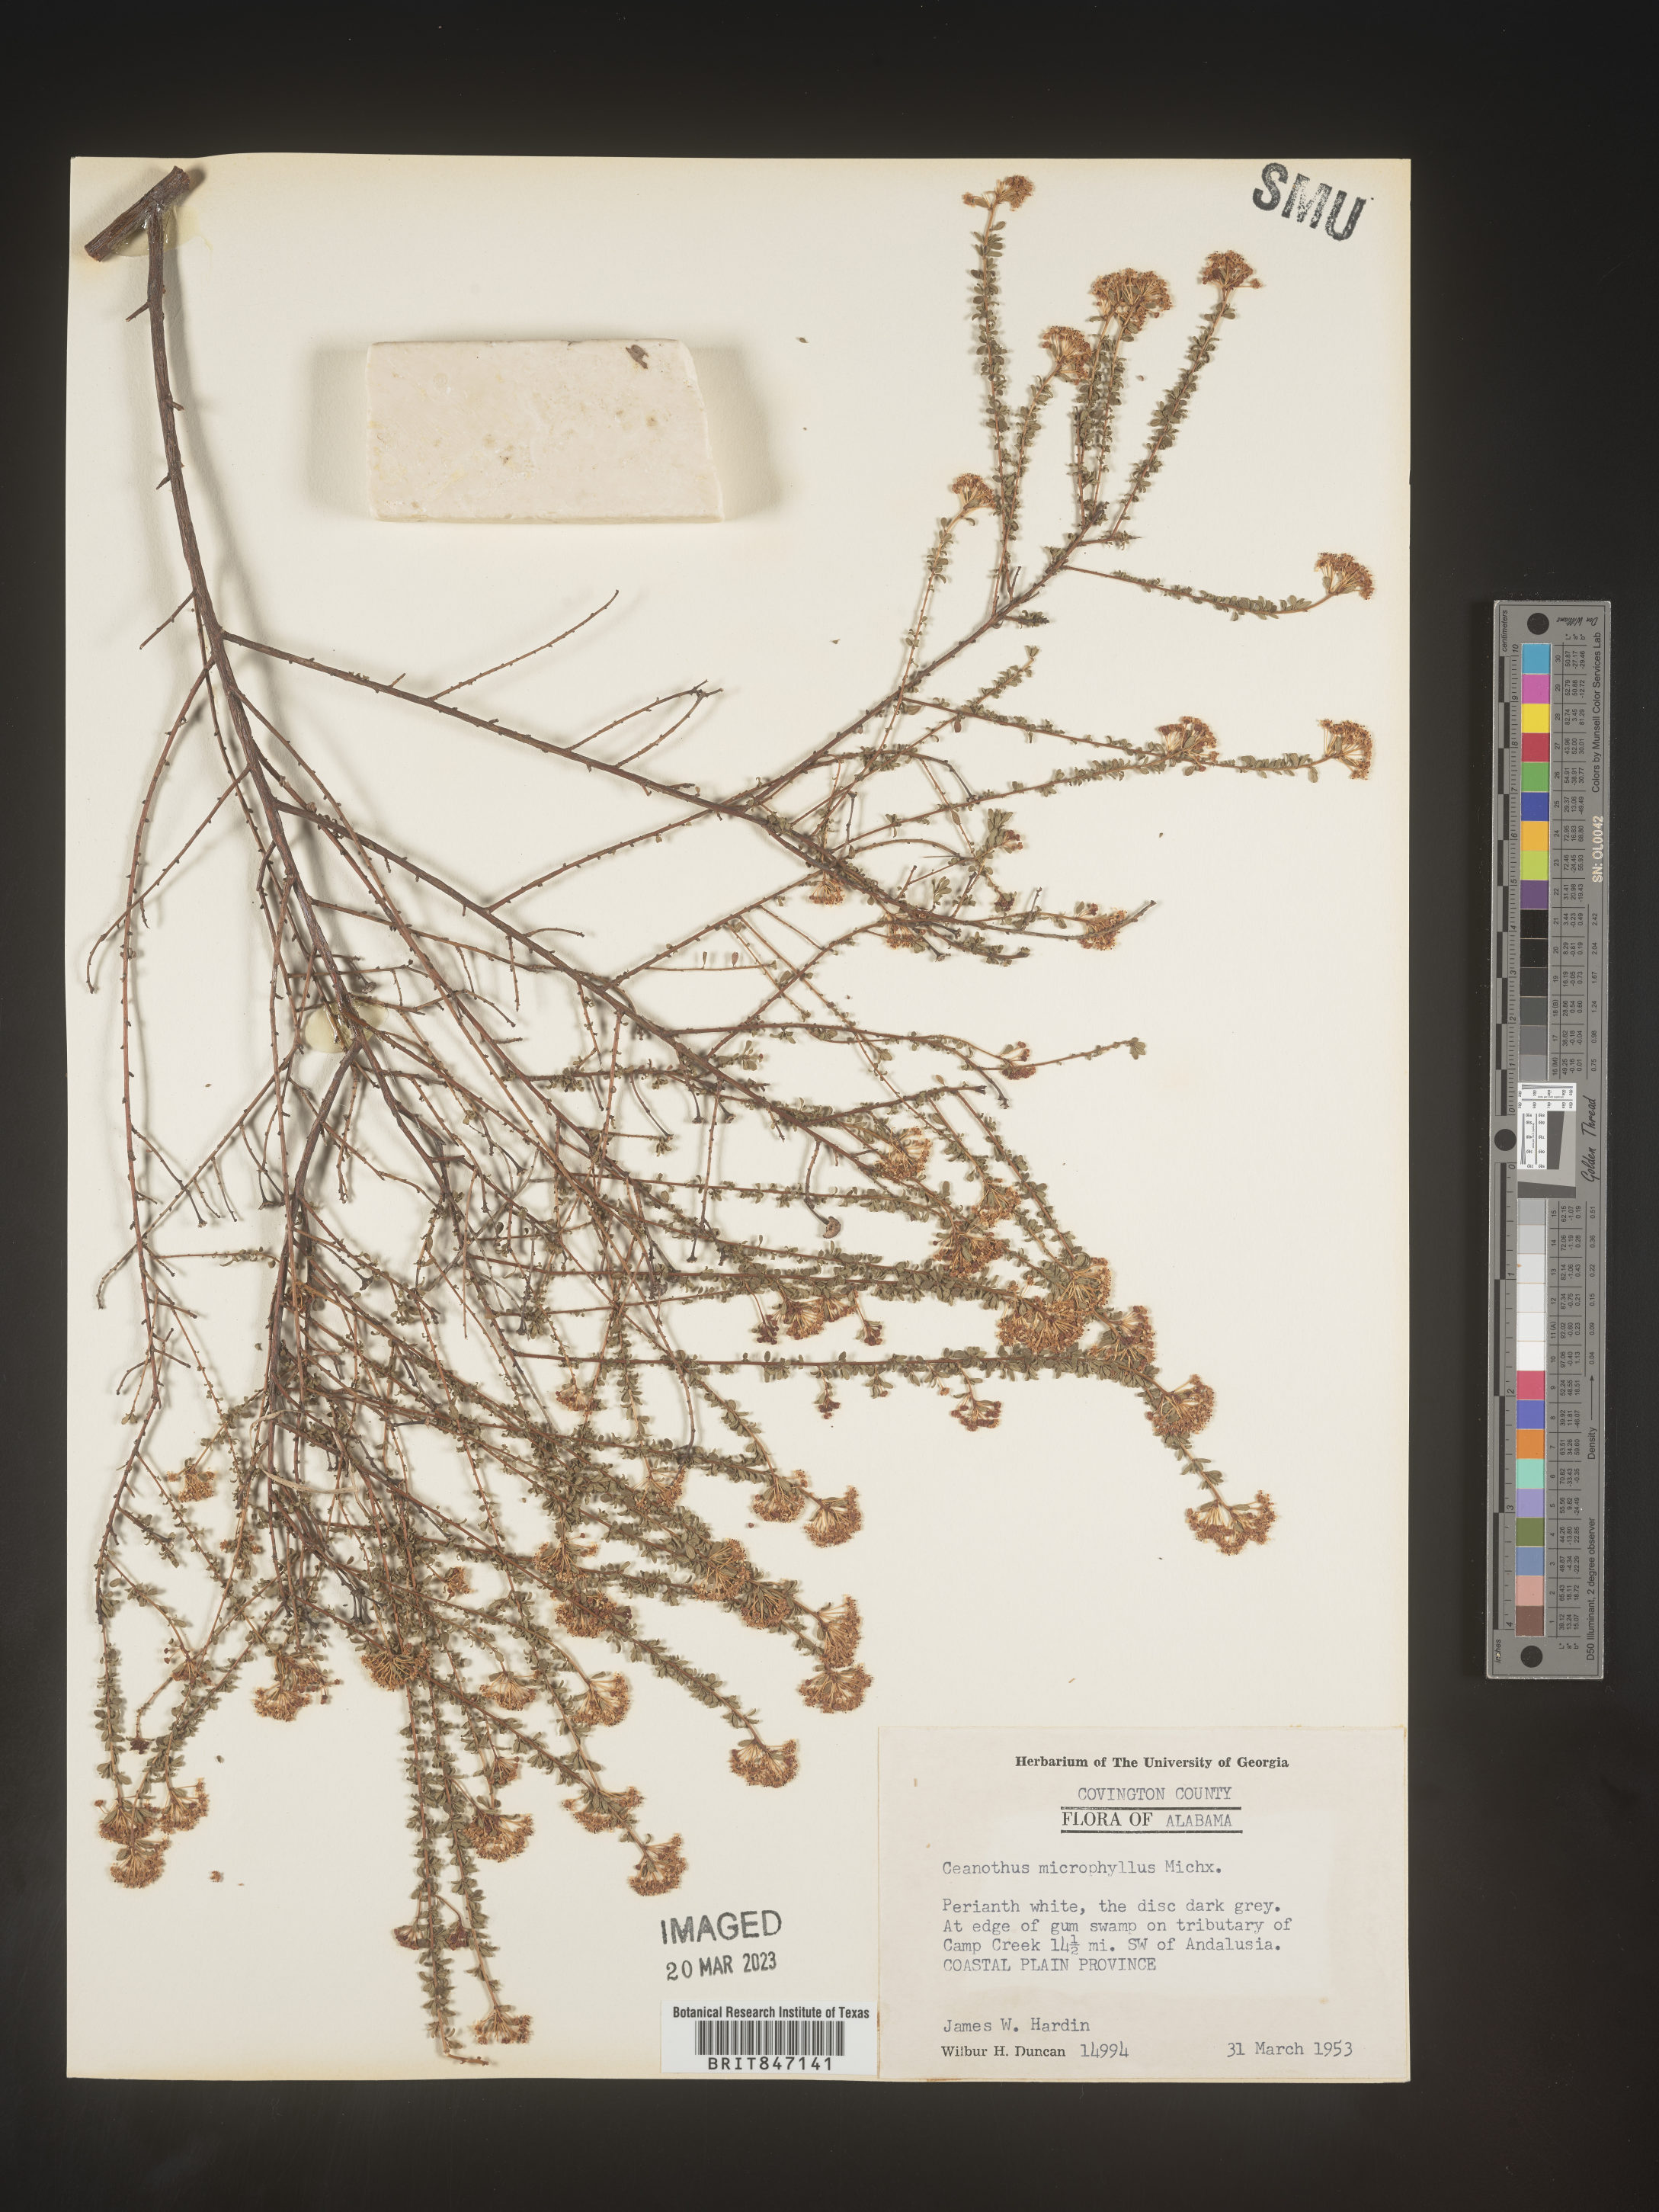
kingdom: Plantae
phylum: Tracheophyta
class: Magnoliopsida
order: Rosales
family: Rhamnaceae
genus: Ceanothus
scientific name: Ceanothus
